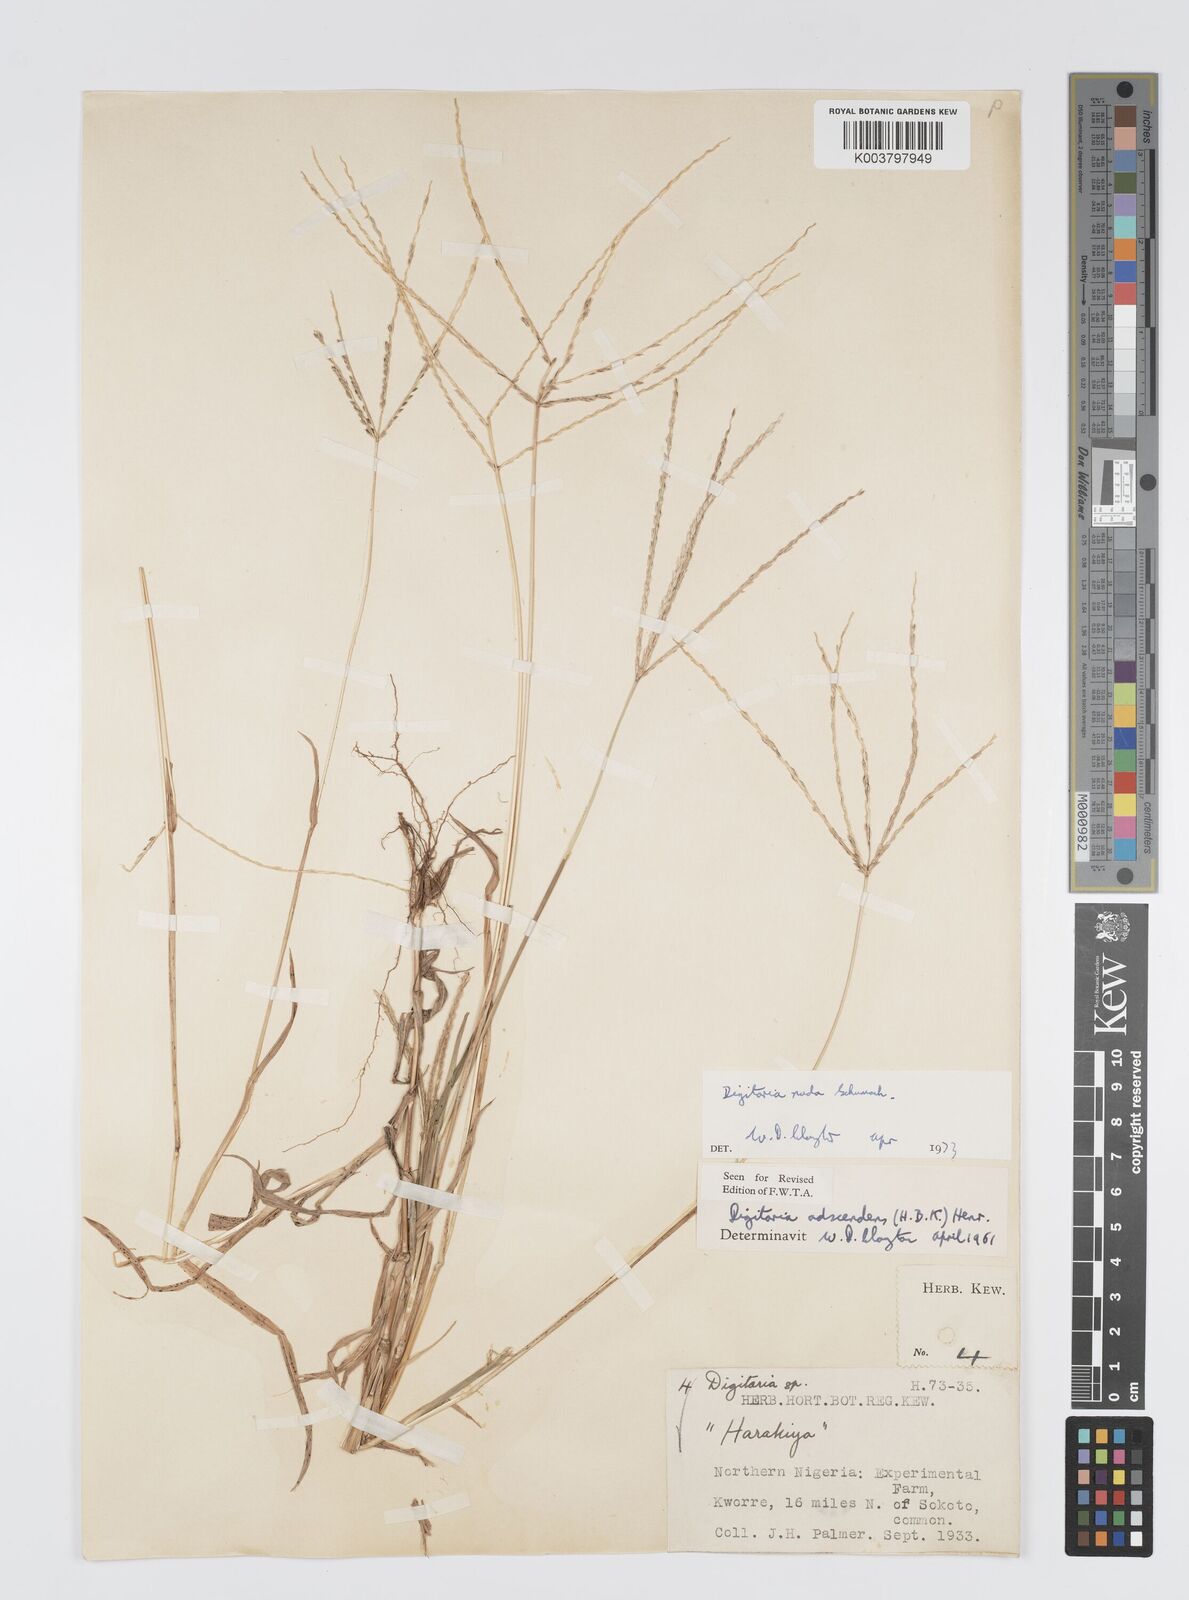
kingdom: Plantae
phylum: Tracheophyta
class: Liliopsida
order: Poales
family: Poaceae
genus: Digitaria
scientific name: Digitaria nuda
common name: Naked crabgrass
